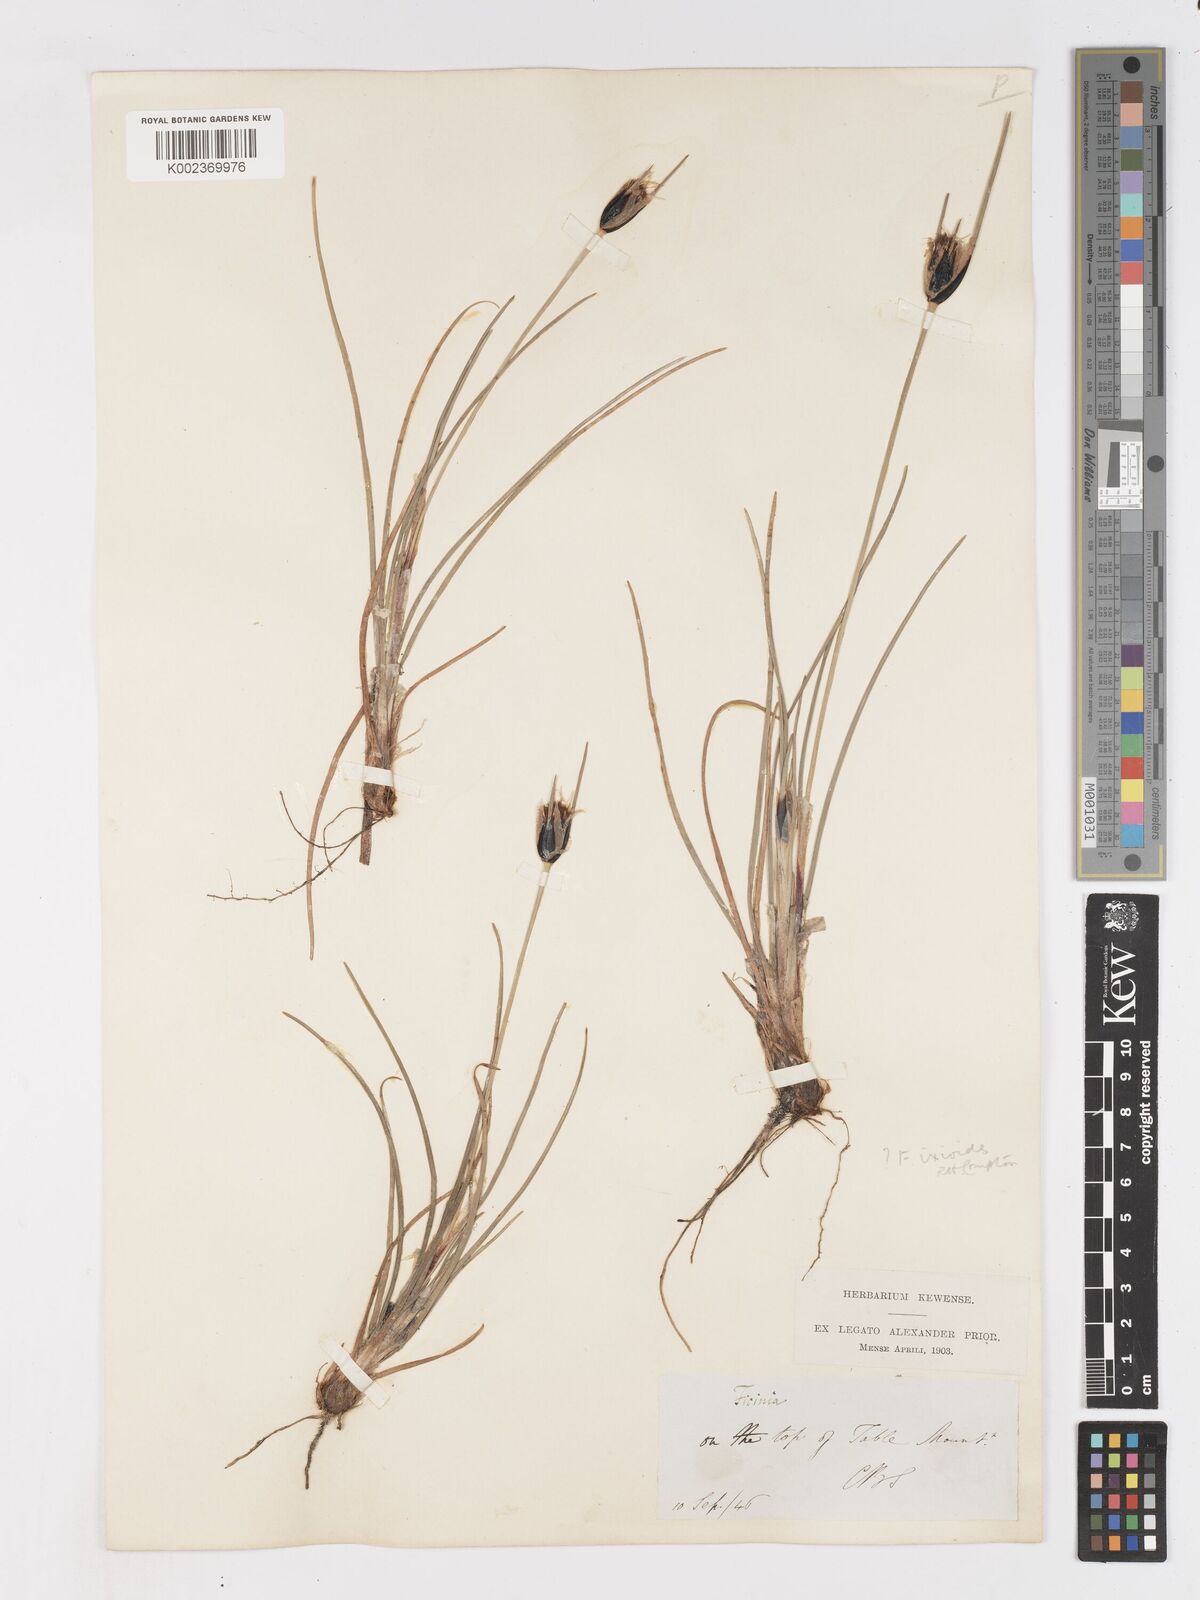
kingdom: Plantae
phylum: Tracheophyta
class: Liliopsida
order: Poales
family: Cyperaceae
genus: Ficinia
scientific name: Ficinia ixioides
